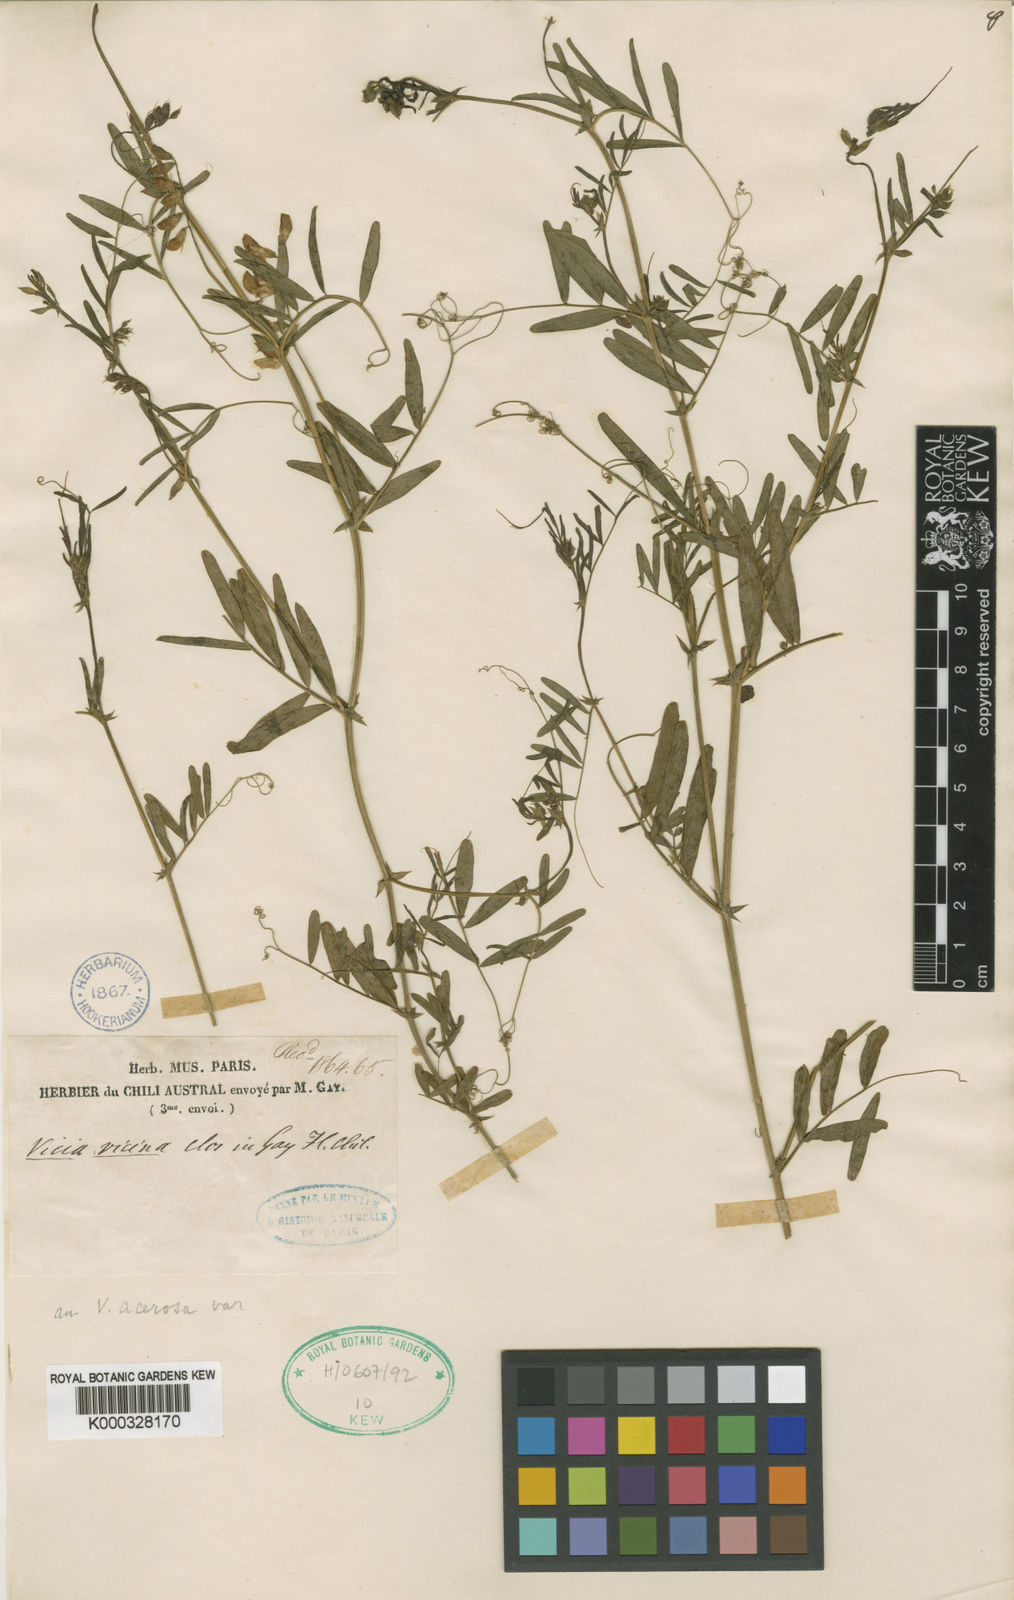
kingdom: Plantae
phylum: Tracheophyta
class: Magnoliopsida
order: Fabales
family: Fabaceae
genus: Vicia
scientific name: Vicia vicina
